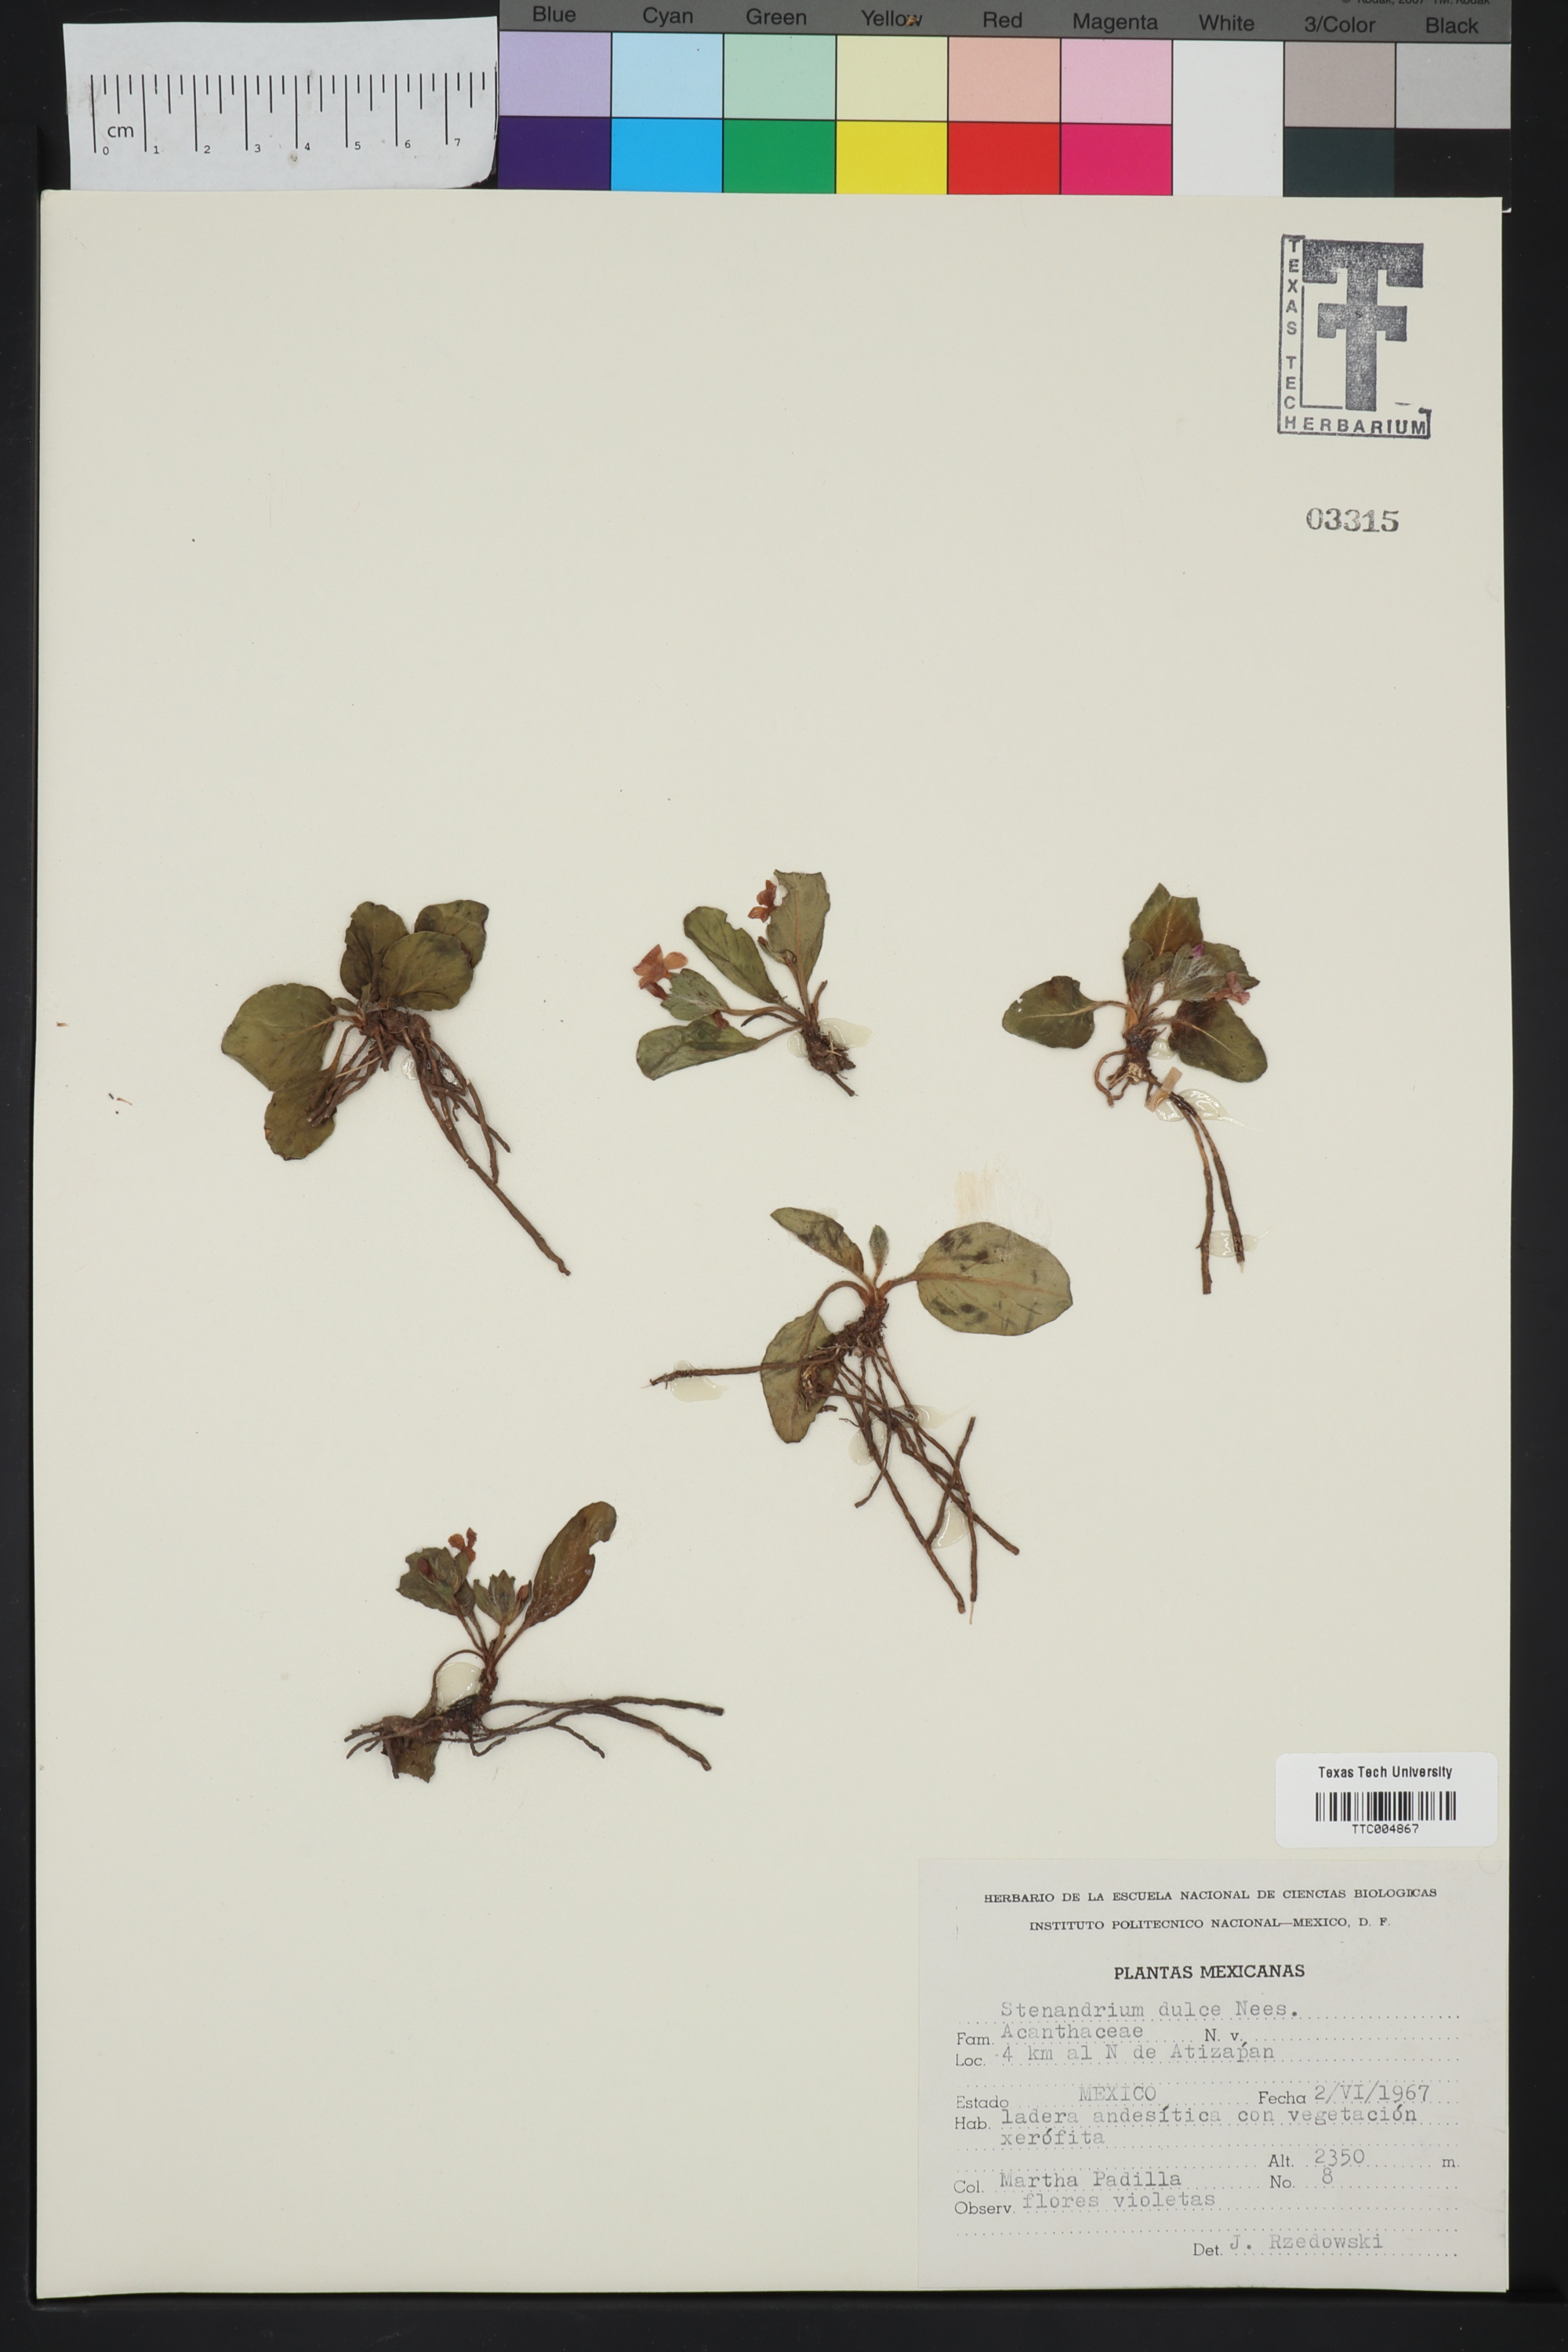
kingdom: Plantae
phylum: Tracheophyta
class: Magnoliopsida
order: Lamiales
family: Acanthaceae
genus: Stenandrium
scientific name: Stenandrium dulce
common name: Pinklet
